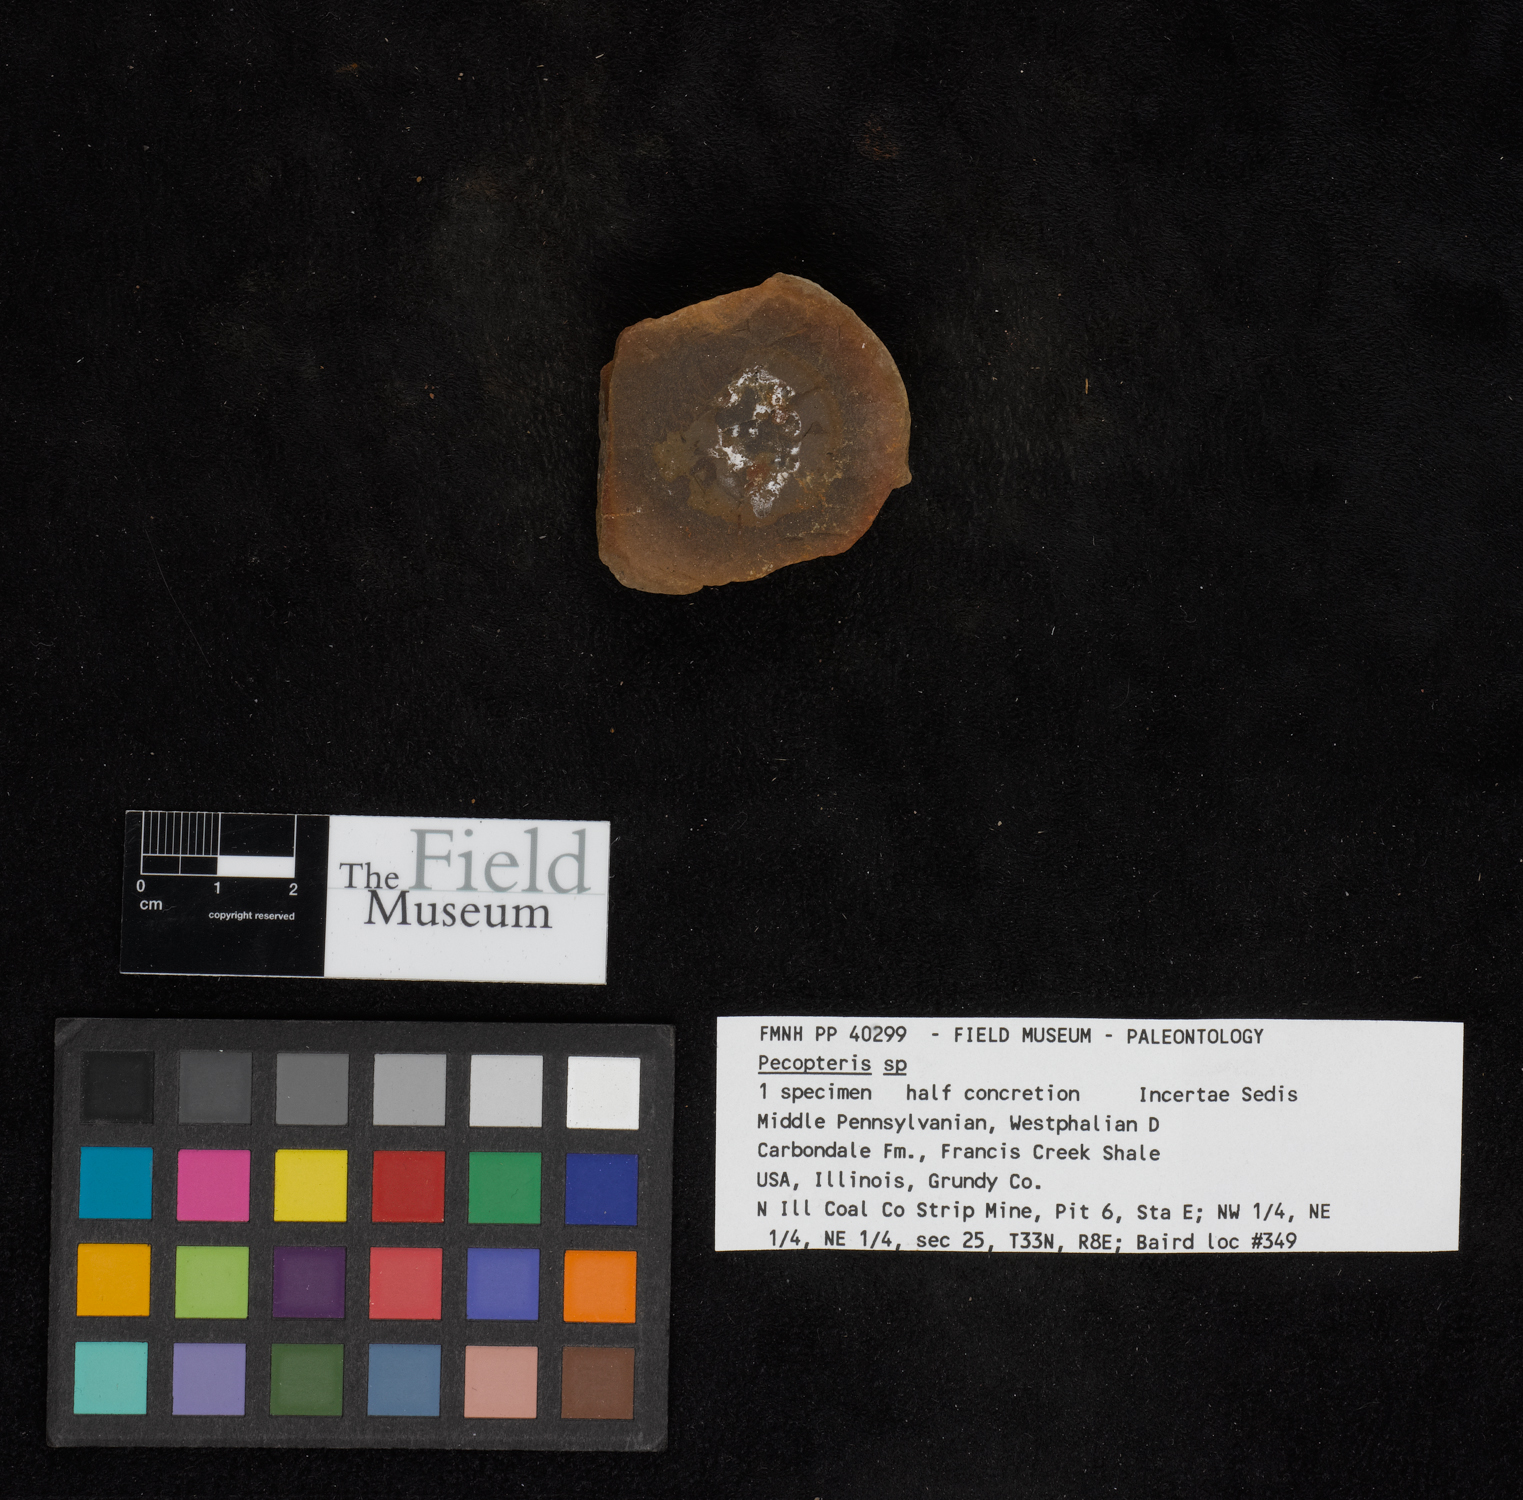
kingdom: Plantae
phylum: Tracheophyta
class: Polypodiopsida
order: Marattiales
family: Asterothecaceae
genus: Pecopteris
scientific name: Pecopteris
